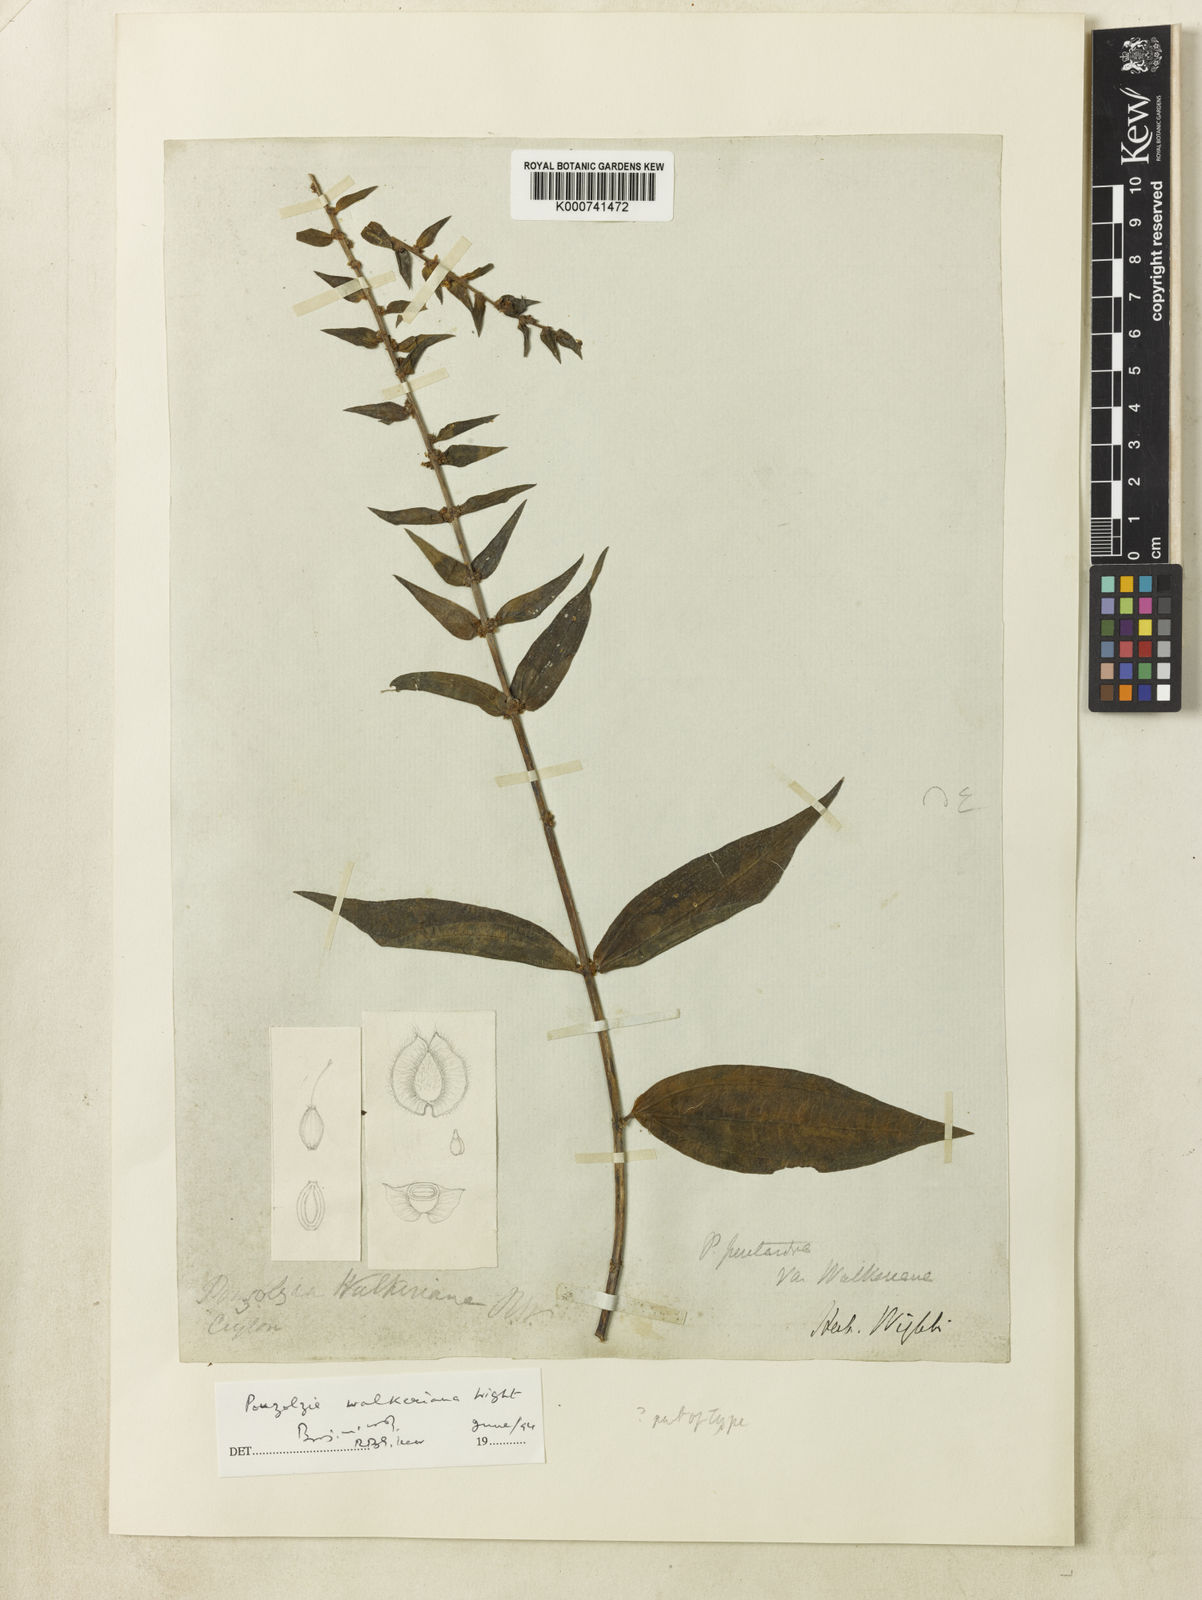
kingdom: Plantae
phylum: Tracheophyta
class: Magnoliopsida
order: Rosales
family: Urticaceae
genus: Gonostegia
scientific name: Gonostegia pentandra
